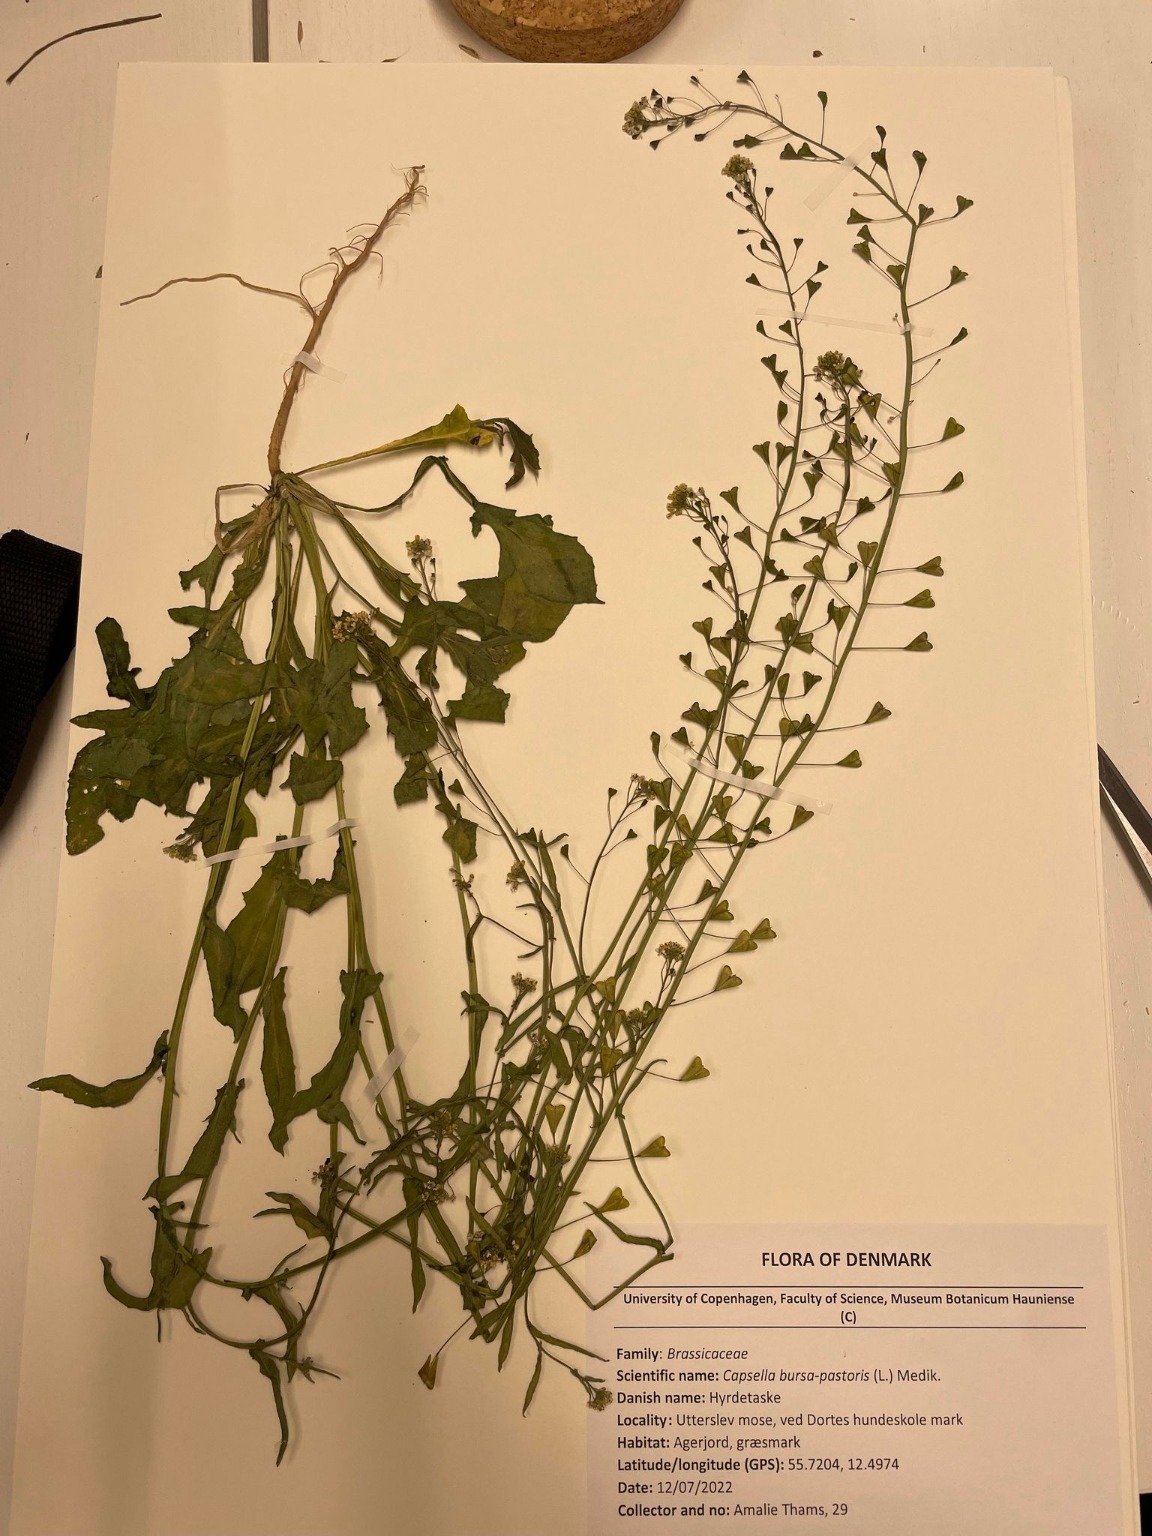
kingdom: Plantae
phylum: Tracheophyta
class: Magnoliopsida
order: Brassicales
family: Brassicaceae
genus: Capsella
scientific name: Capsella bursa-pastoris
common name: Hyrdetaske
